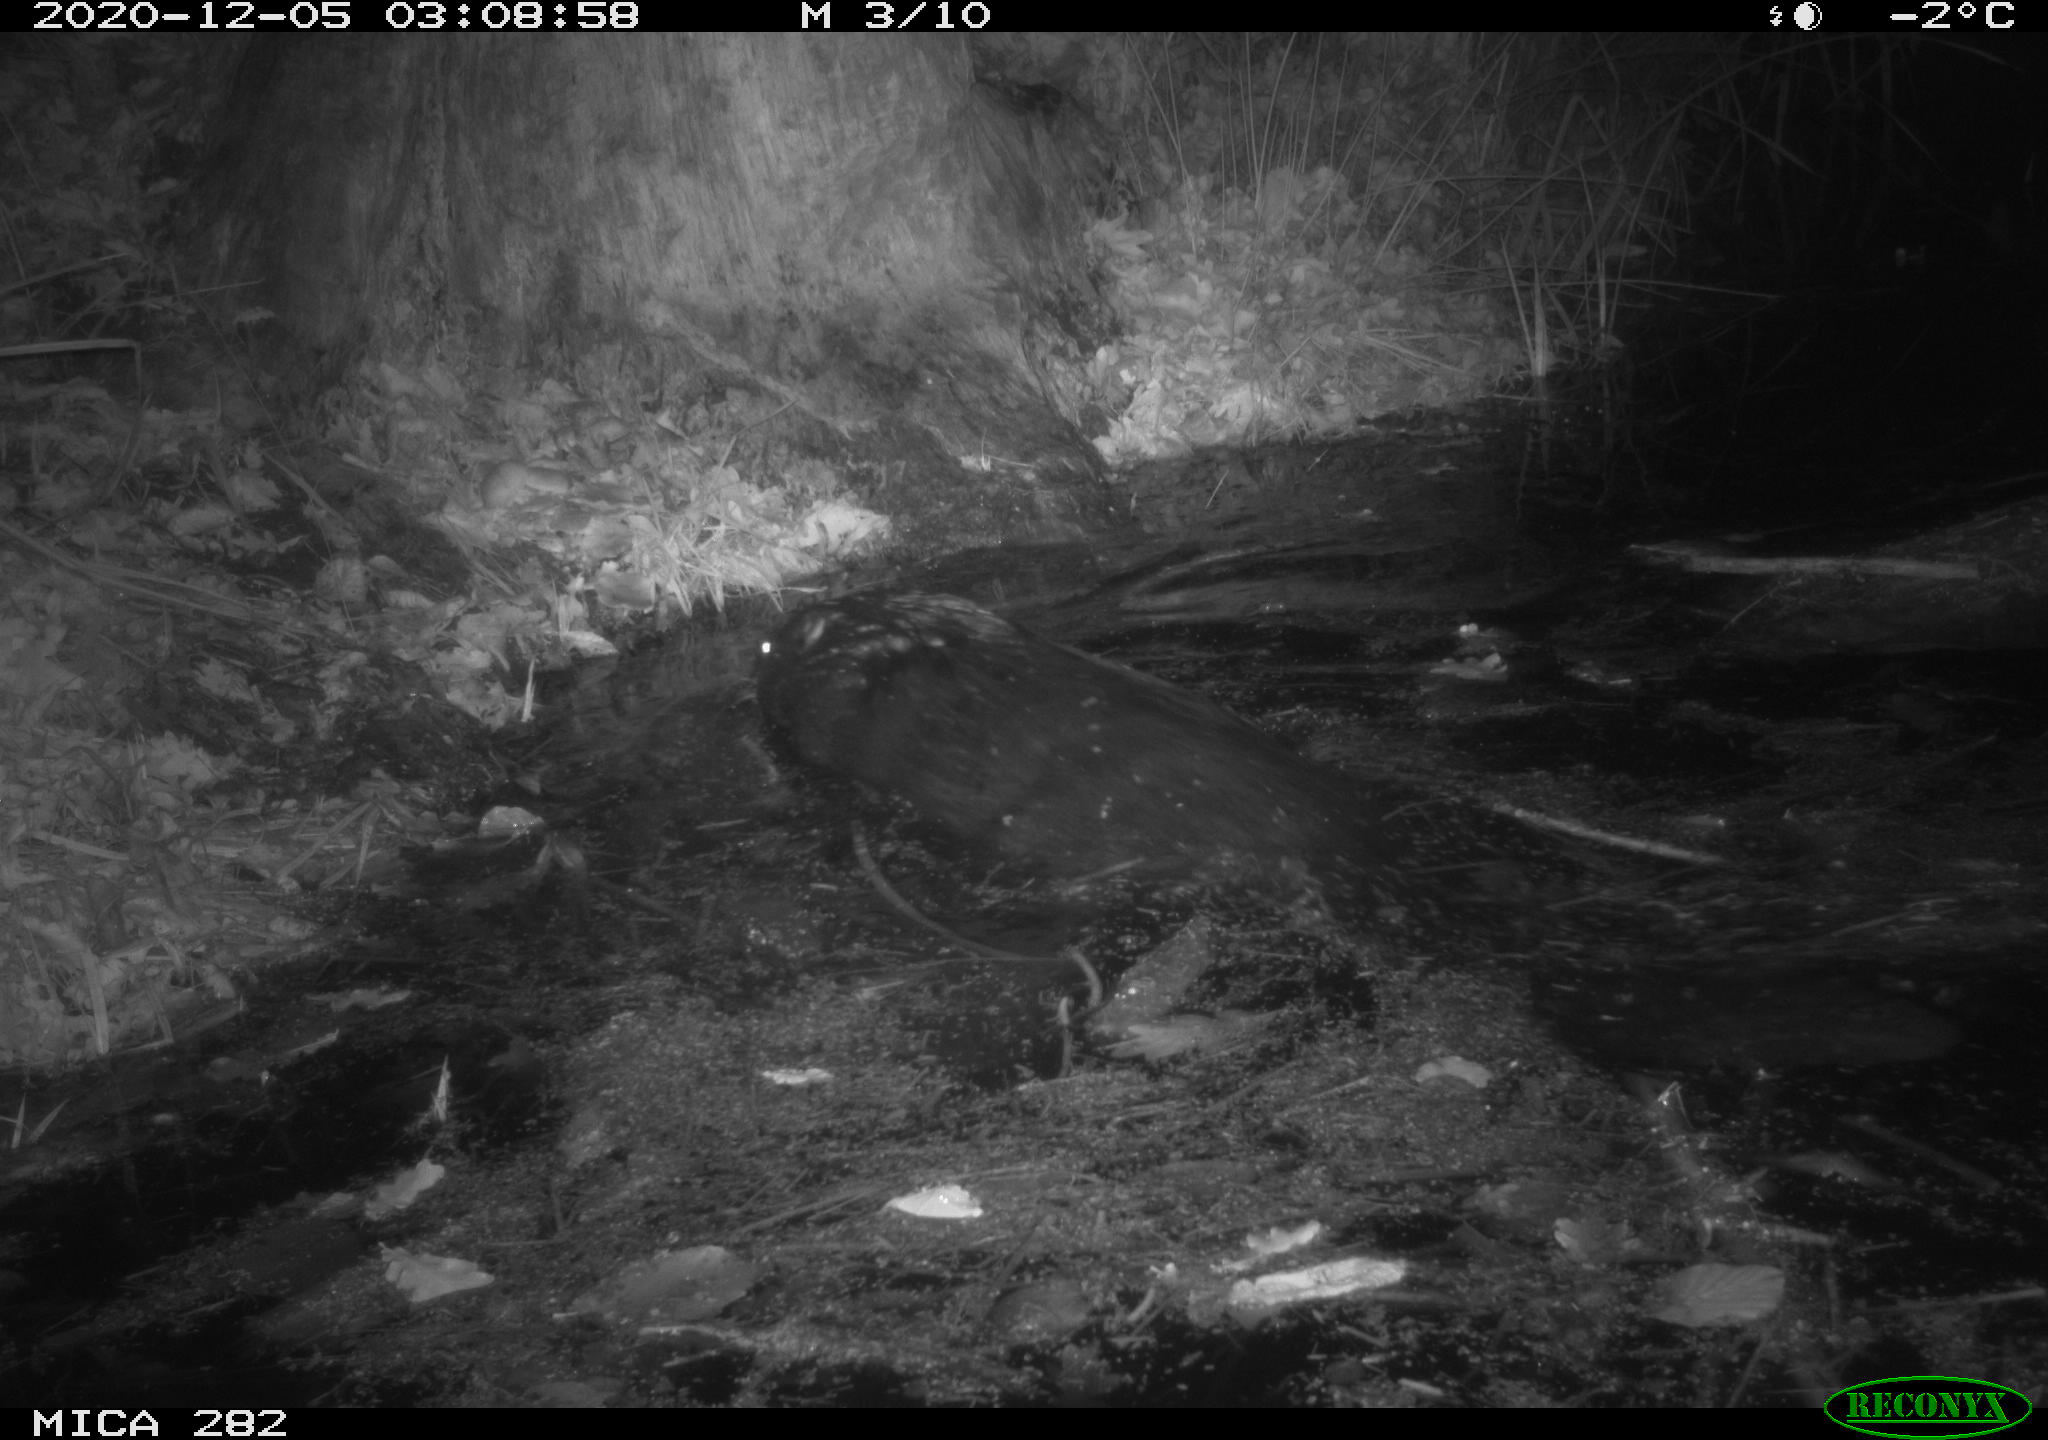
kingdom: Animalia
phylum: Chordata
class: Mammalia
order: Rodentia
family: Castoridae
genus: Castor
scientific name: Castor fiber
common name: Eurasian beaver
